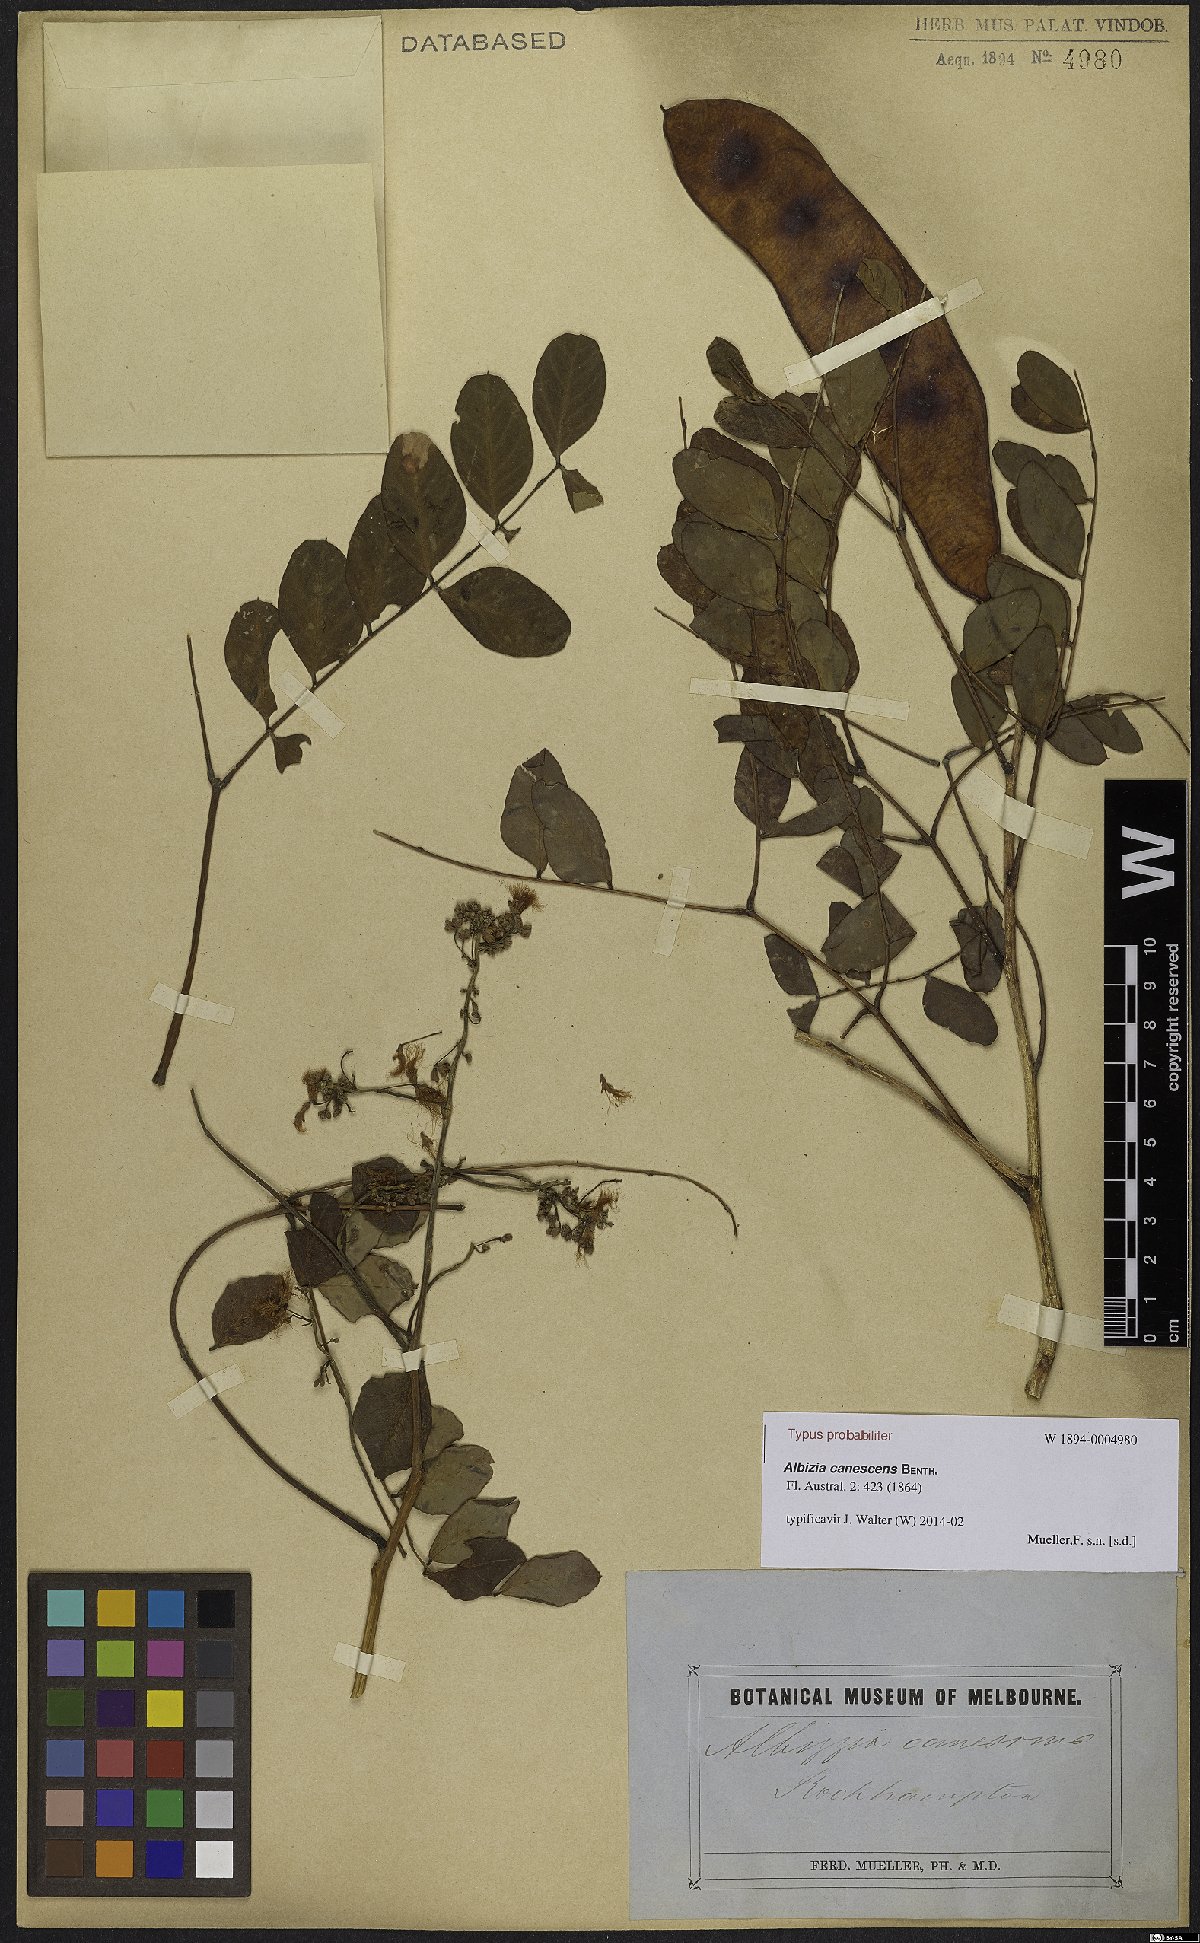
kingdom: Plantae
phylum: Tracheophyta
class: Magnoliopsida
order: Fabales
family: Fabaceae
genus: Albizia
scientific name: Albizia canescens
